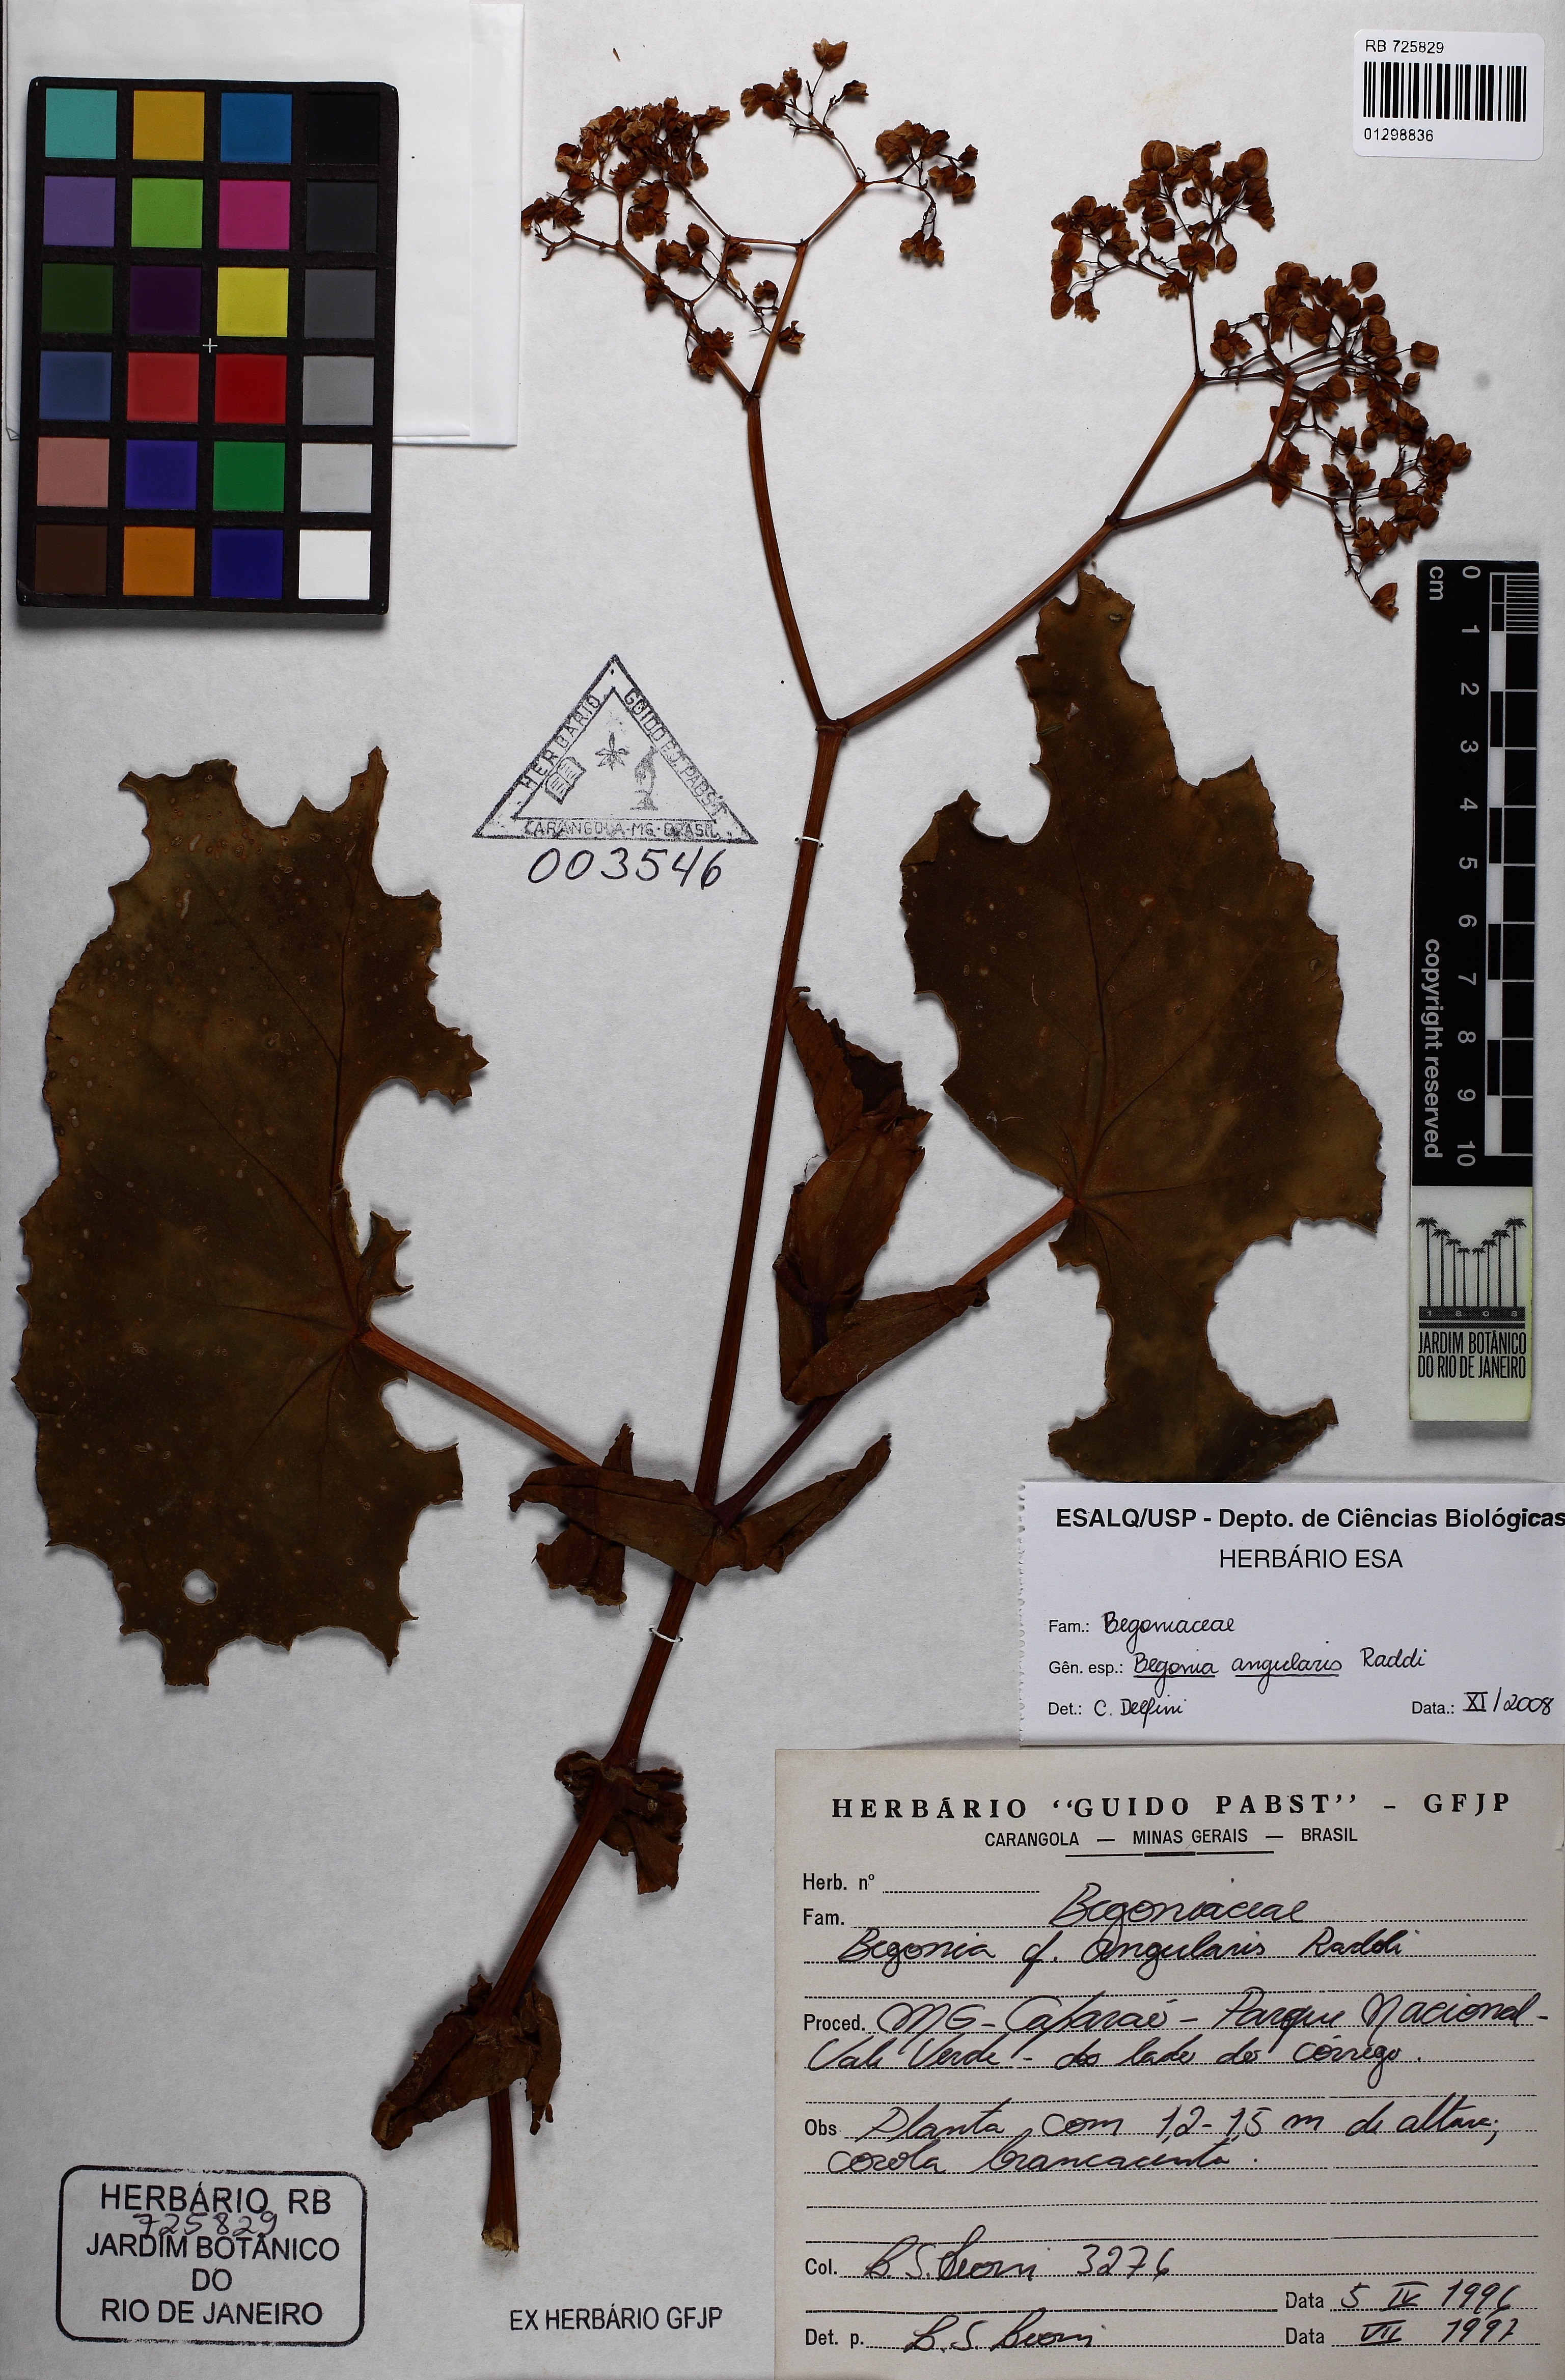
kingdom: Plantae
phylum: Tracheophyta
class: Magnoliopsida
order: Cucurbitales
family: Begoniaceae
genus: Begonia
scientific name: Begonia angularis
